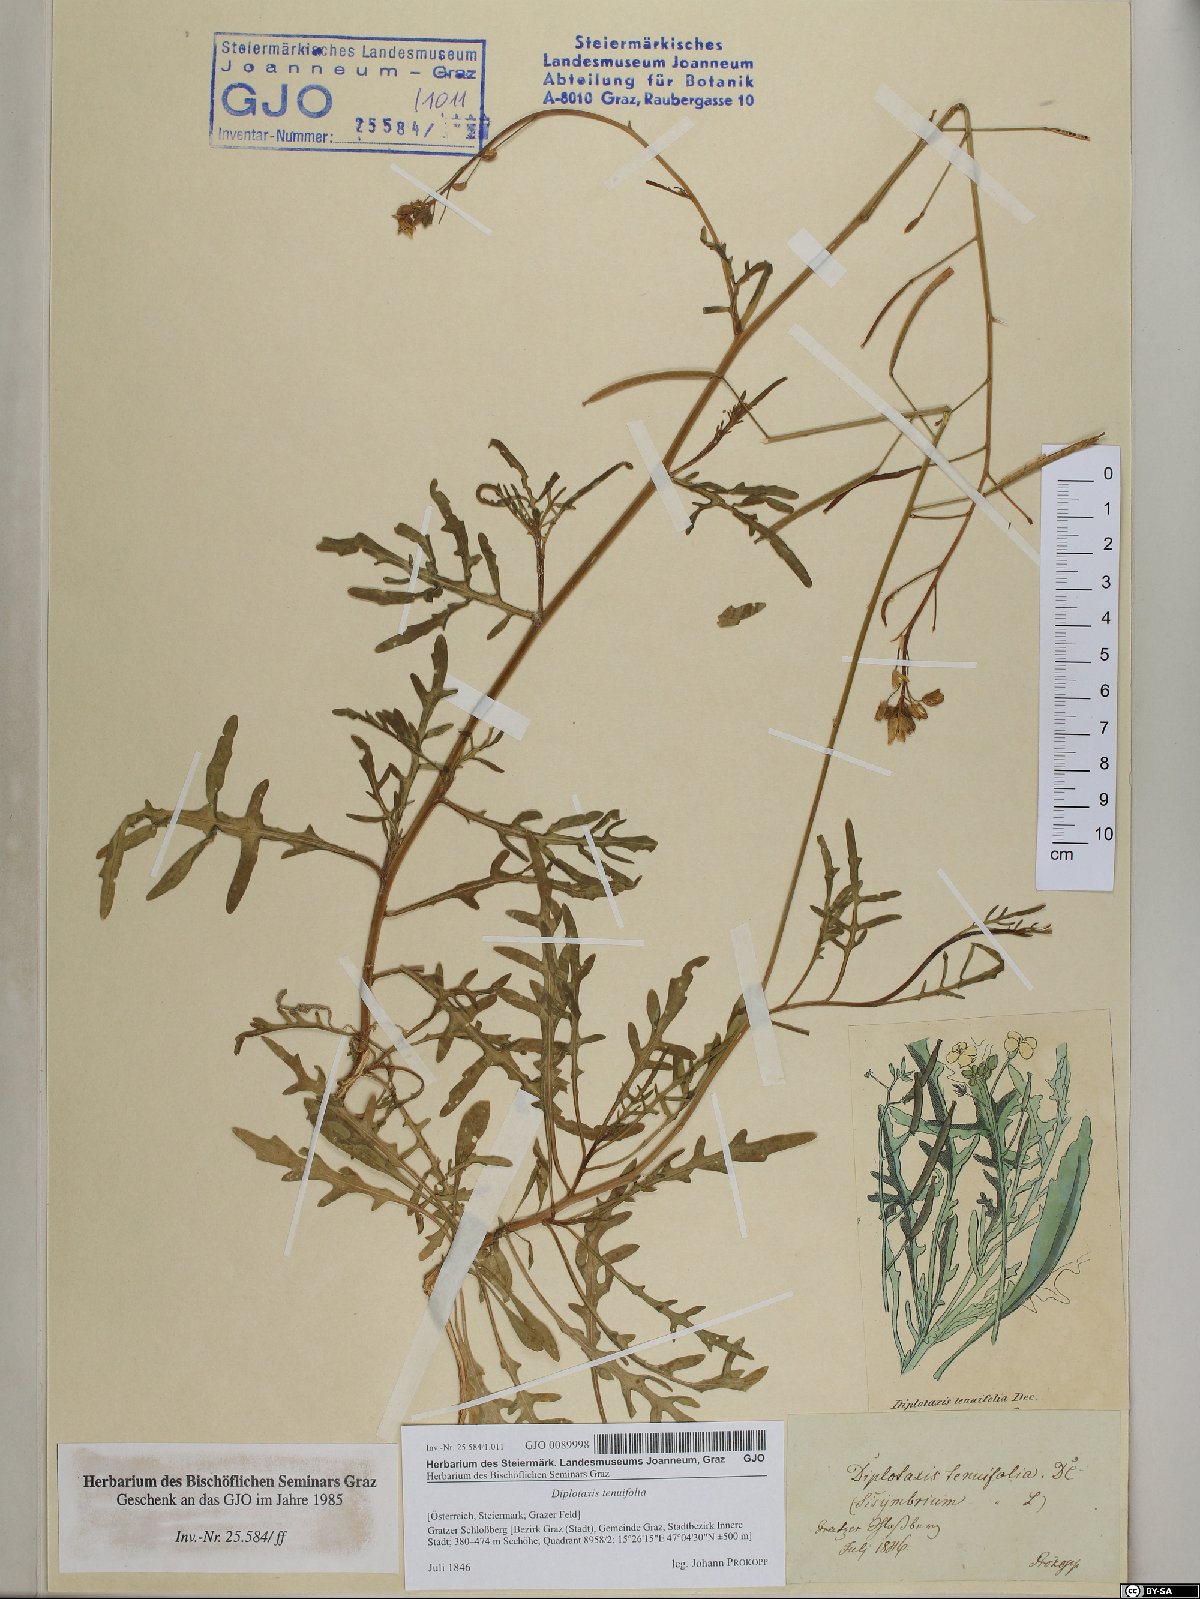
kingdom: Plantae
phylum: Tracheophyta
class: Magnoliopsida
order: Brassicales
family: Brassicaceae
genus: Diplotaxis
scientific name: Diplotaxis tenuifolia
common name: Perennial wall-rocket
